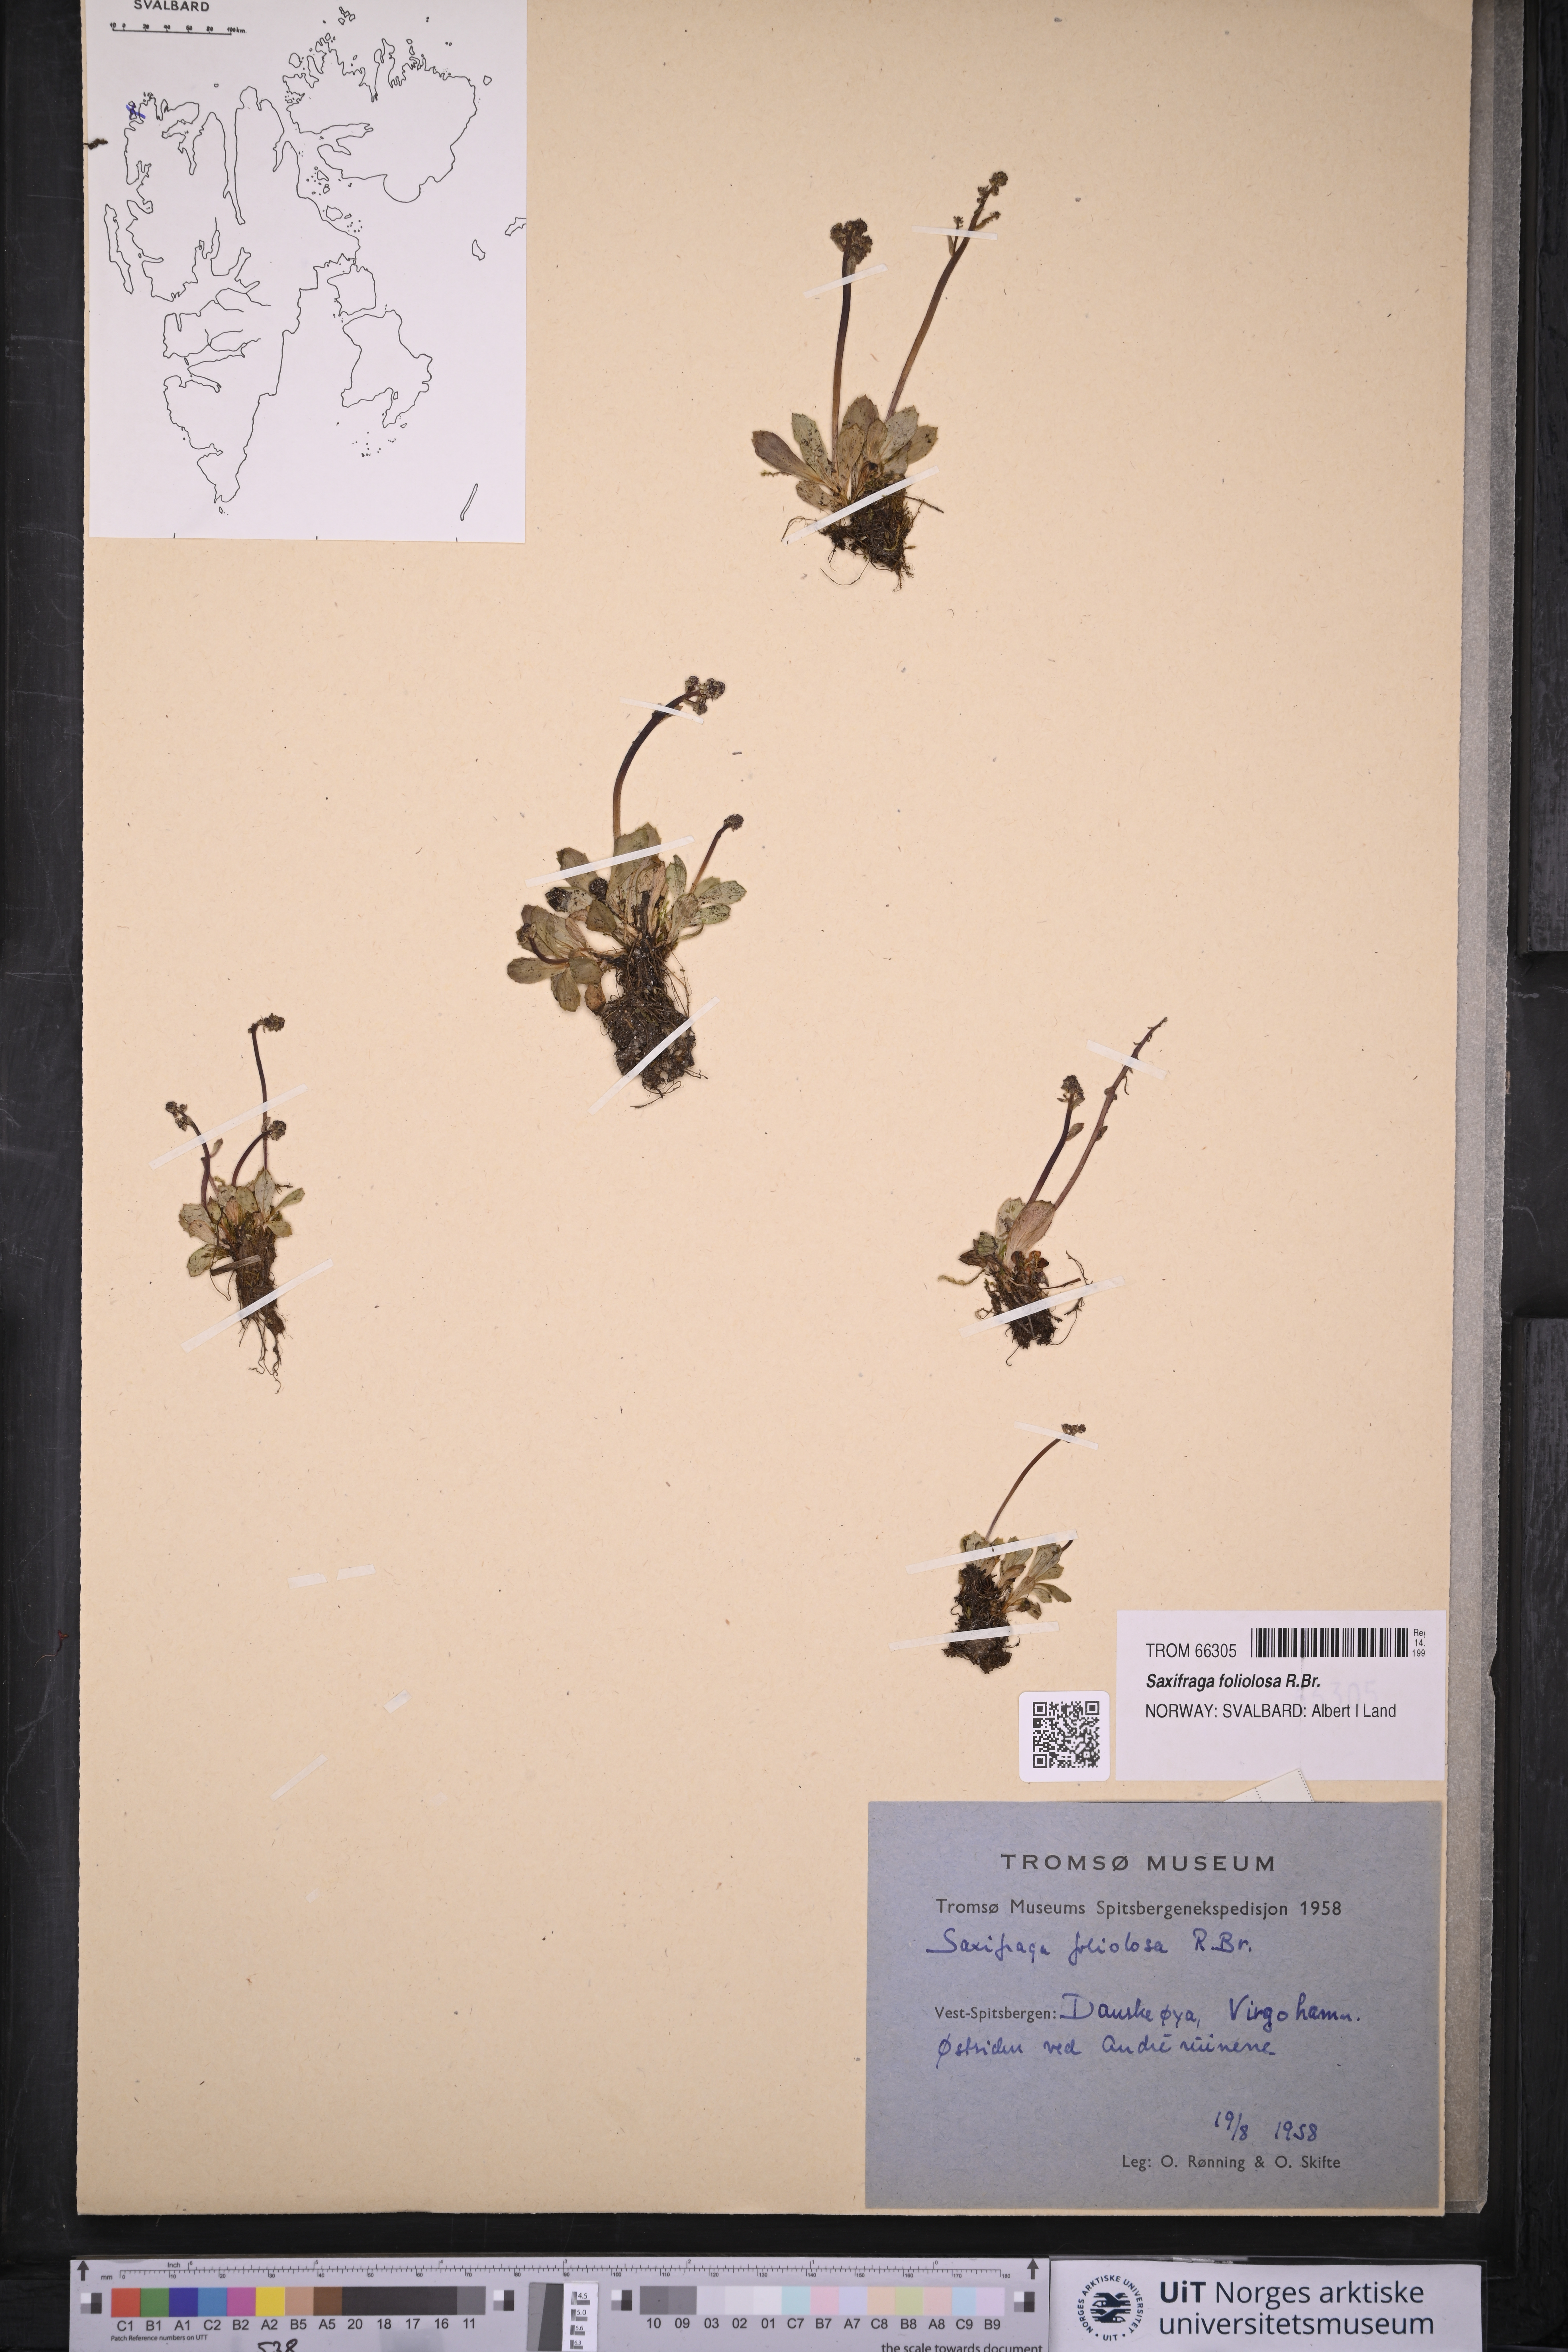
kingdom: Plantae
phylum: Tracheophyta
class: Magnoliopsida
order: Saxifragales
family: Saxifragaceae
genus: Micranthes
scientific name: Micranthes foliolosa
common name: Leafystem saxifrage
